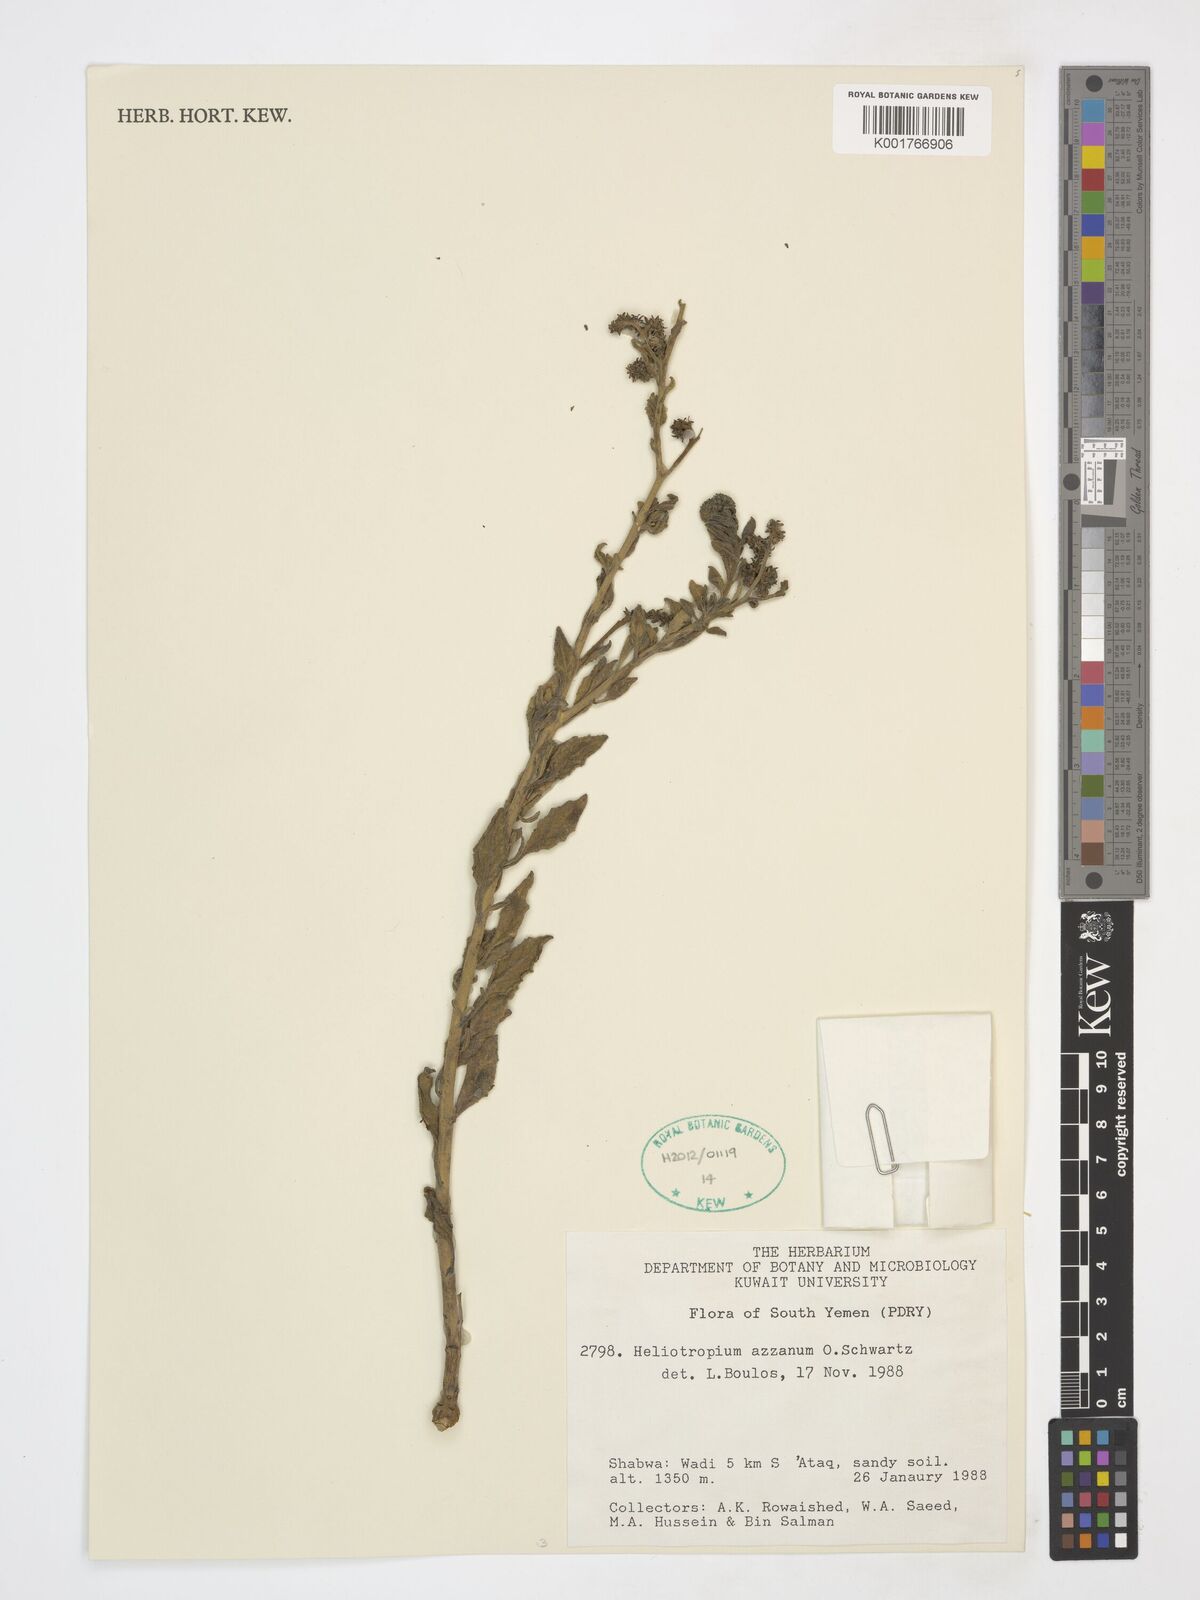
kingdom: Plantae
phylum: Tracheophyta
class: Magnoliopsida
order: Boraginales
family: Heliotropiaceae
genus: Heliotropium
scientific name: Heliotropium azzanum
